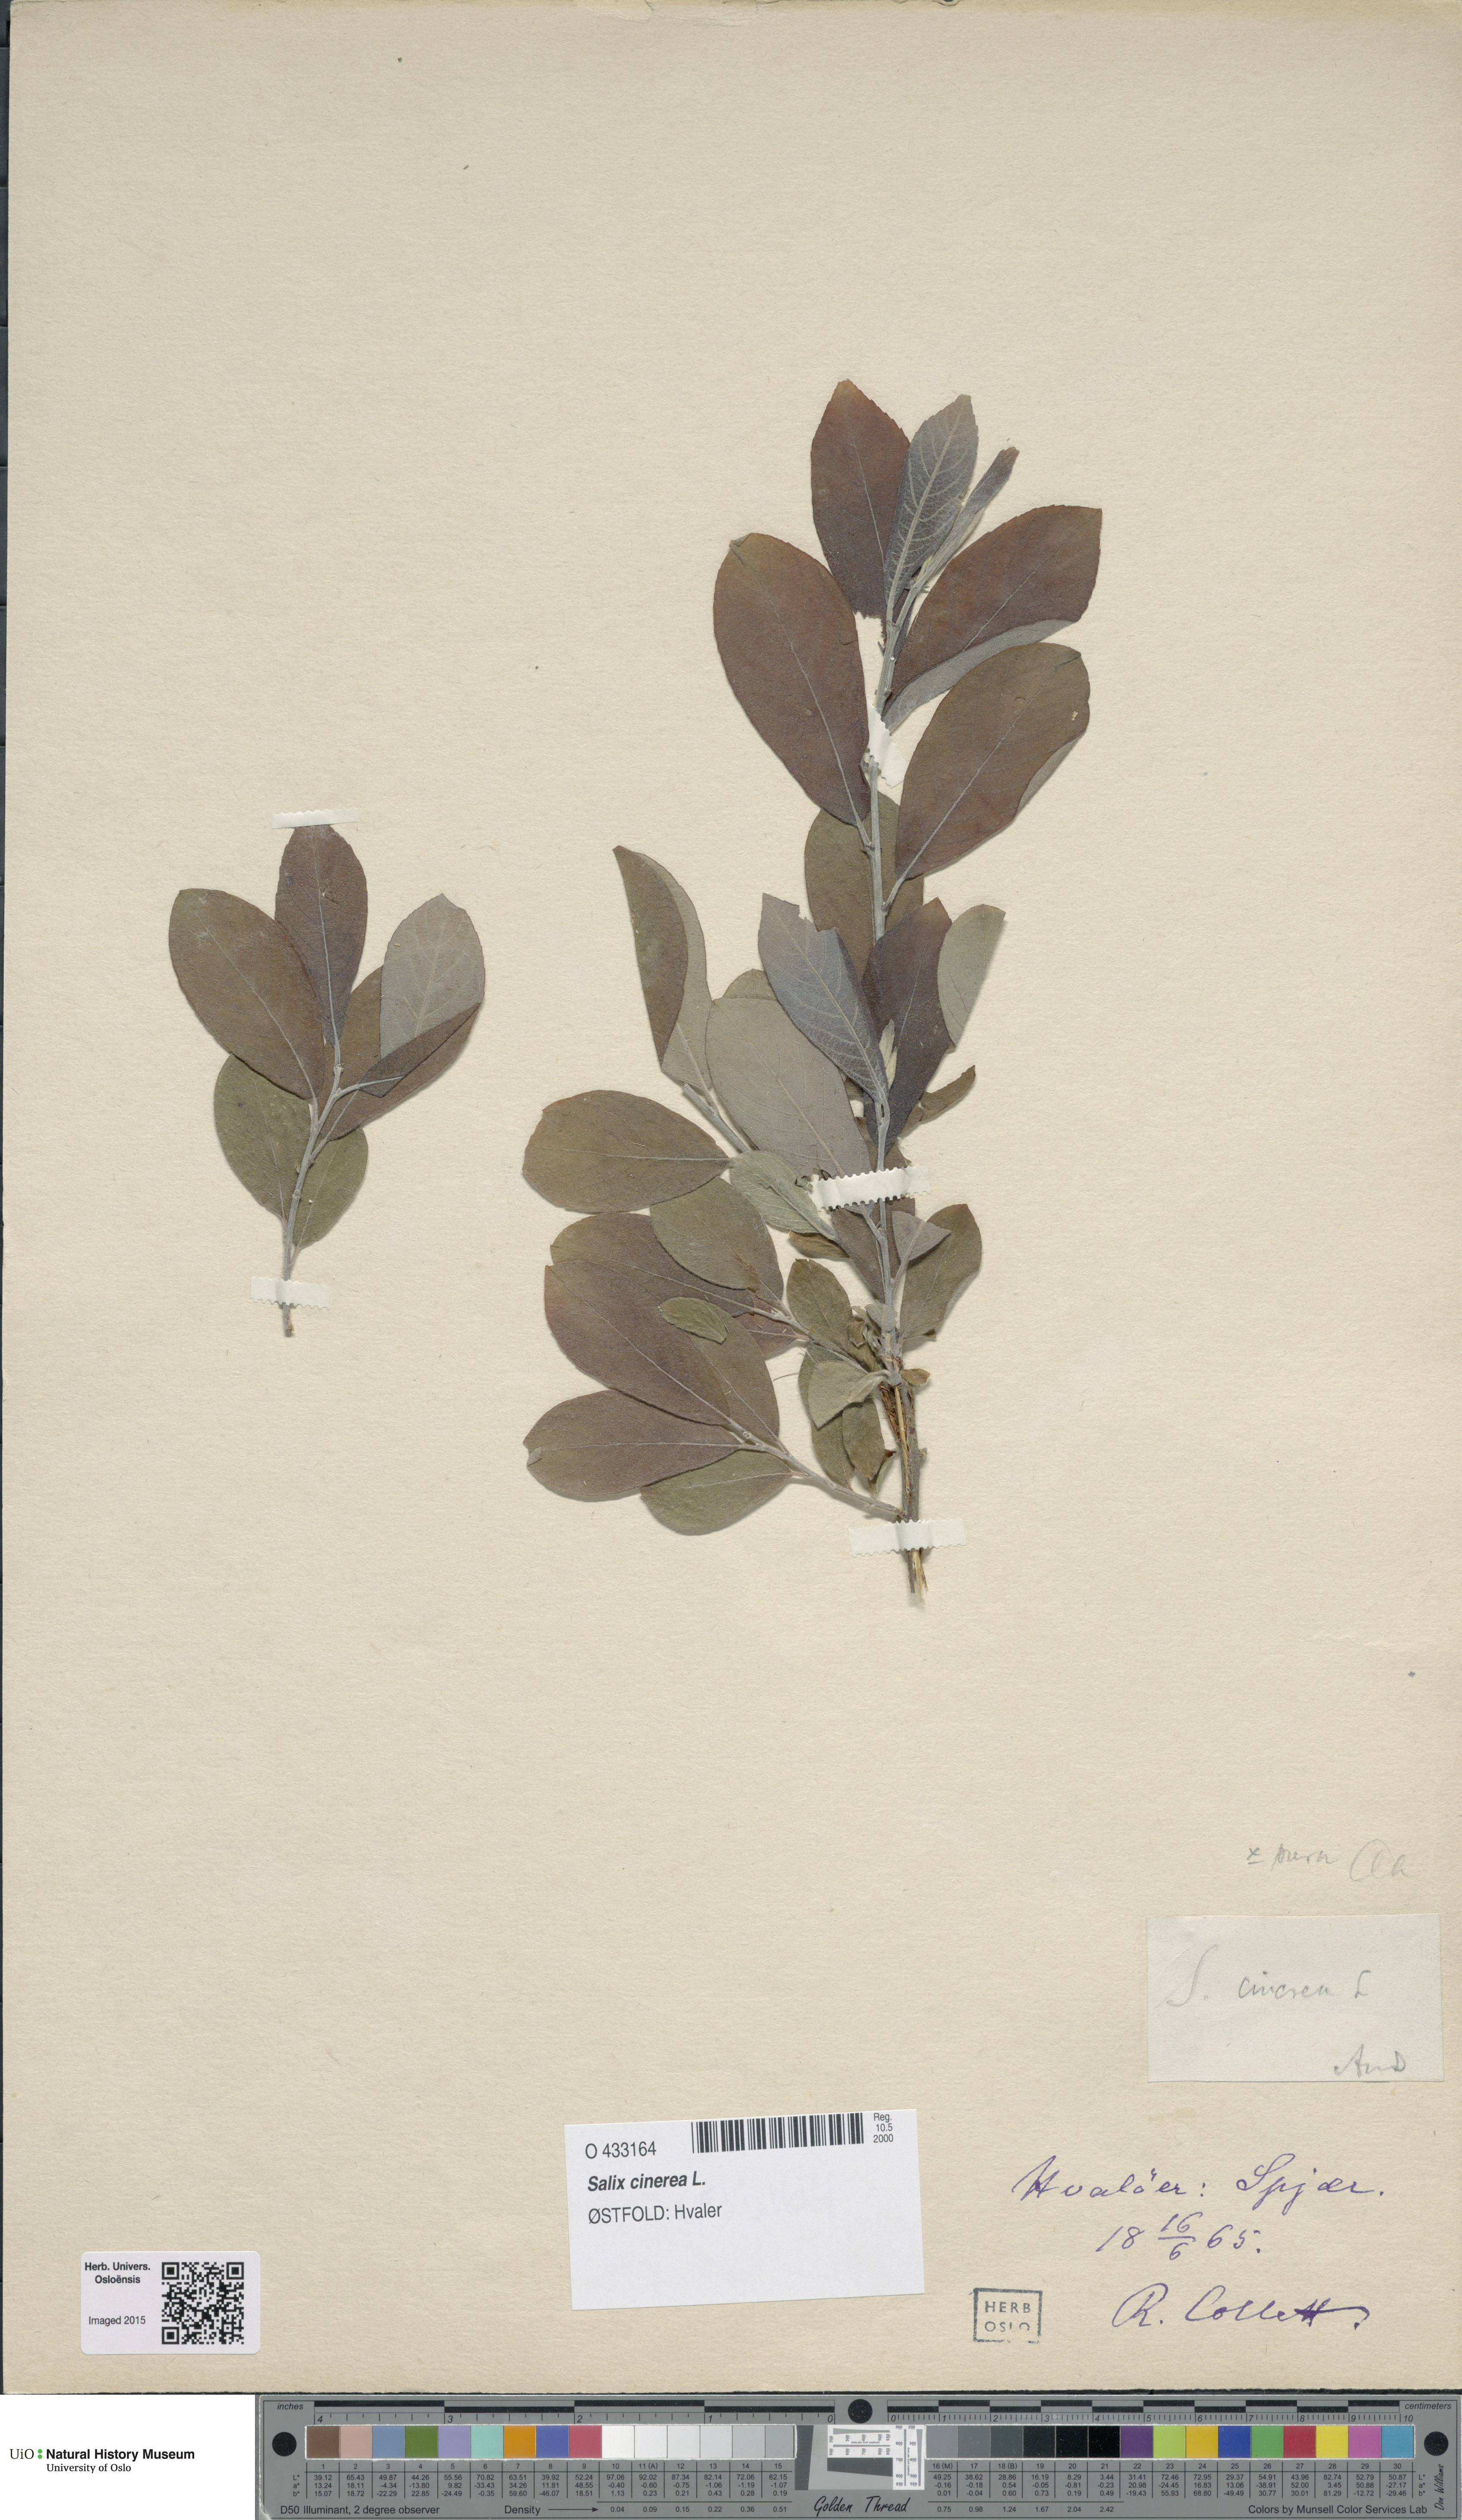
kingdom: Plantae
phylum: Tracheophyta
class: Magnoliopsida
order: Malpighiales
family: Salicaceae
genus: Salix
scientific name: Salix cinerea
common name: Common sallow
